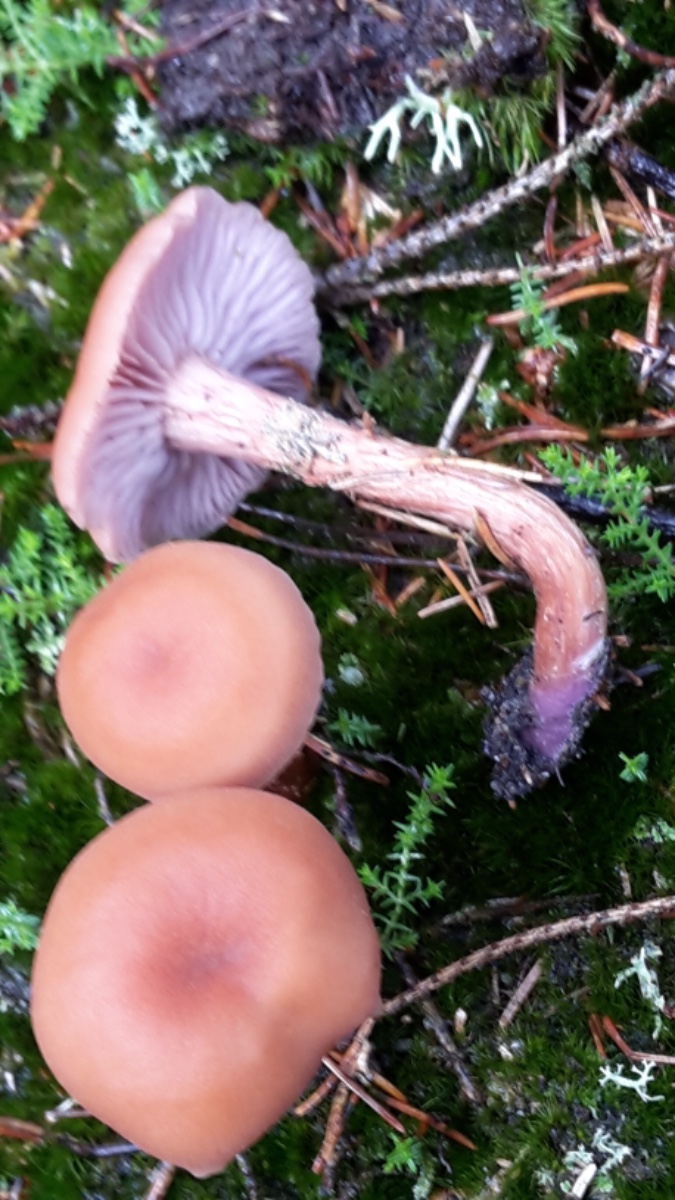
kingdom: Fungi
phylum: Basidiomycota
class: Agaricomycetes
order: Agaricales
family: Hydnangiaceae
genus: Laccaria
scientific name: Laccaria bicolor
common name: tvefarvet ametysthat
